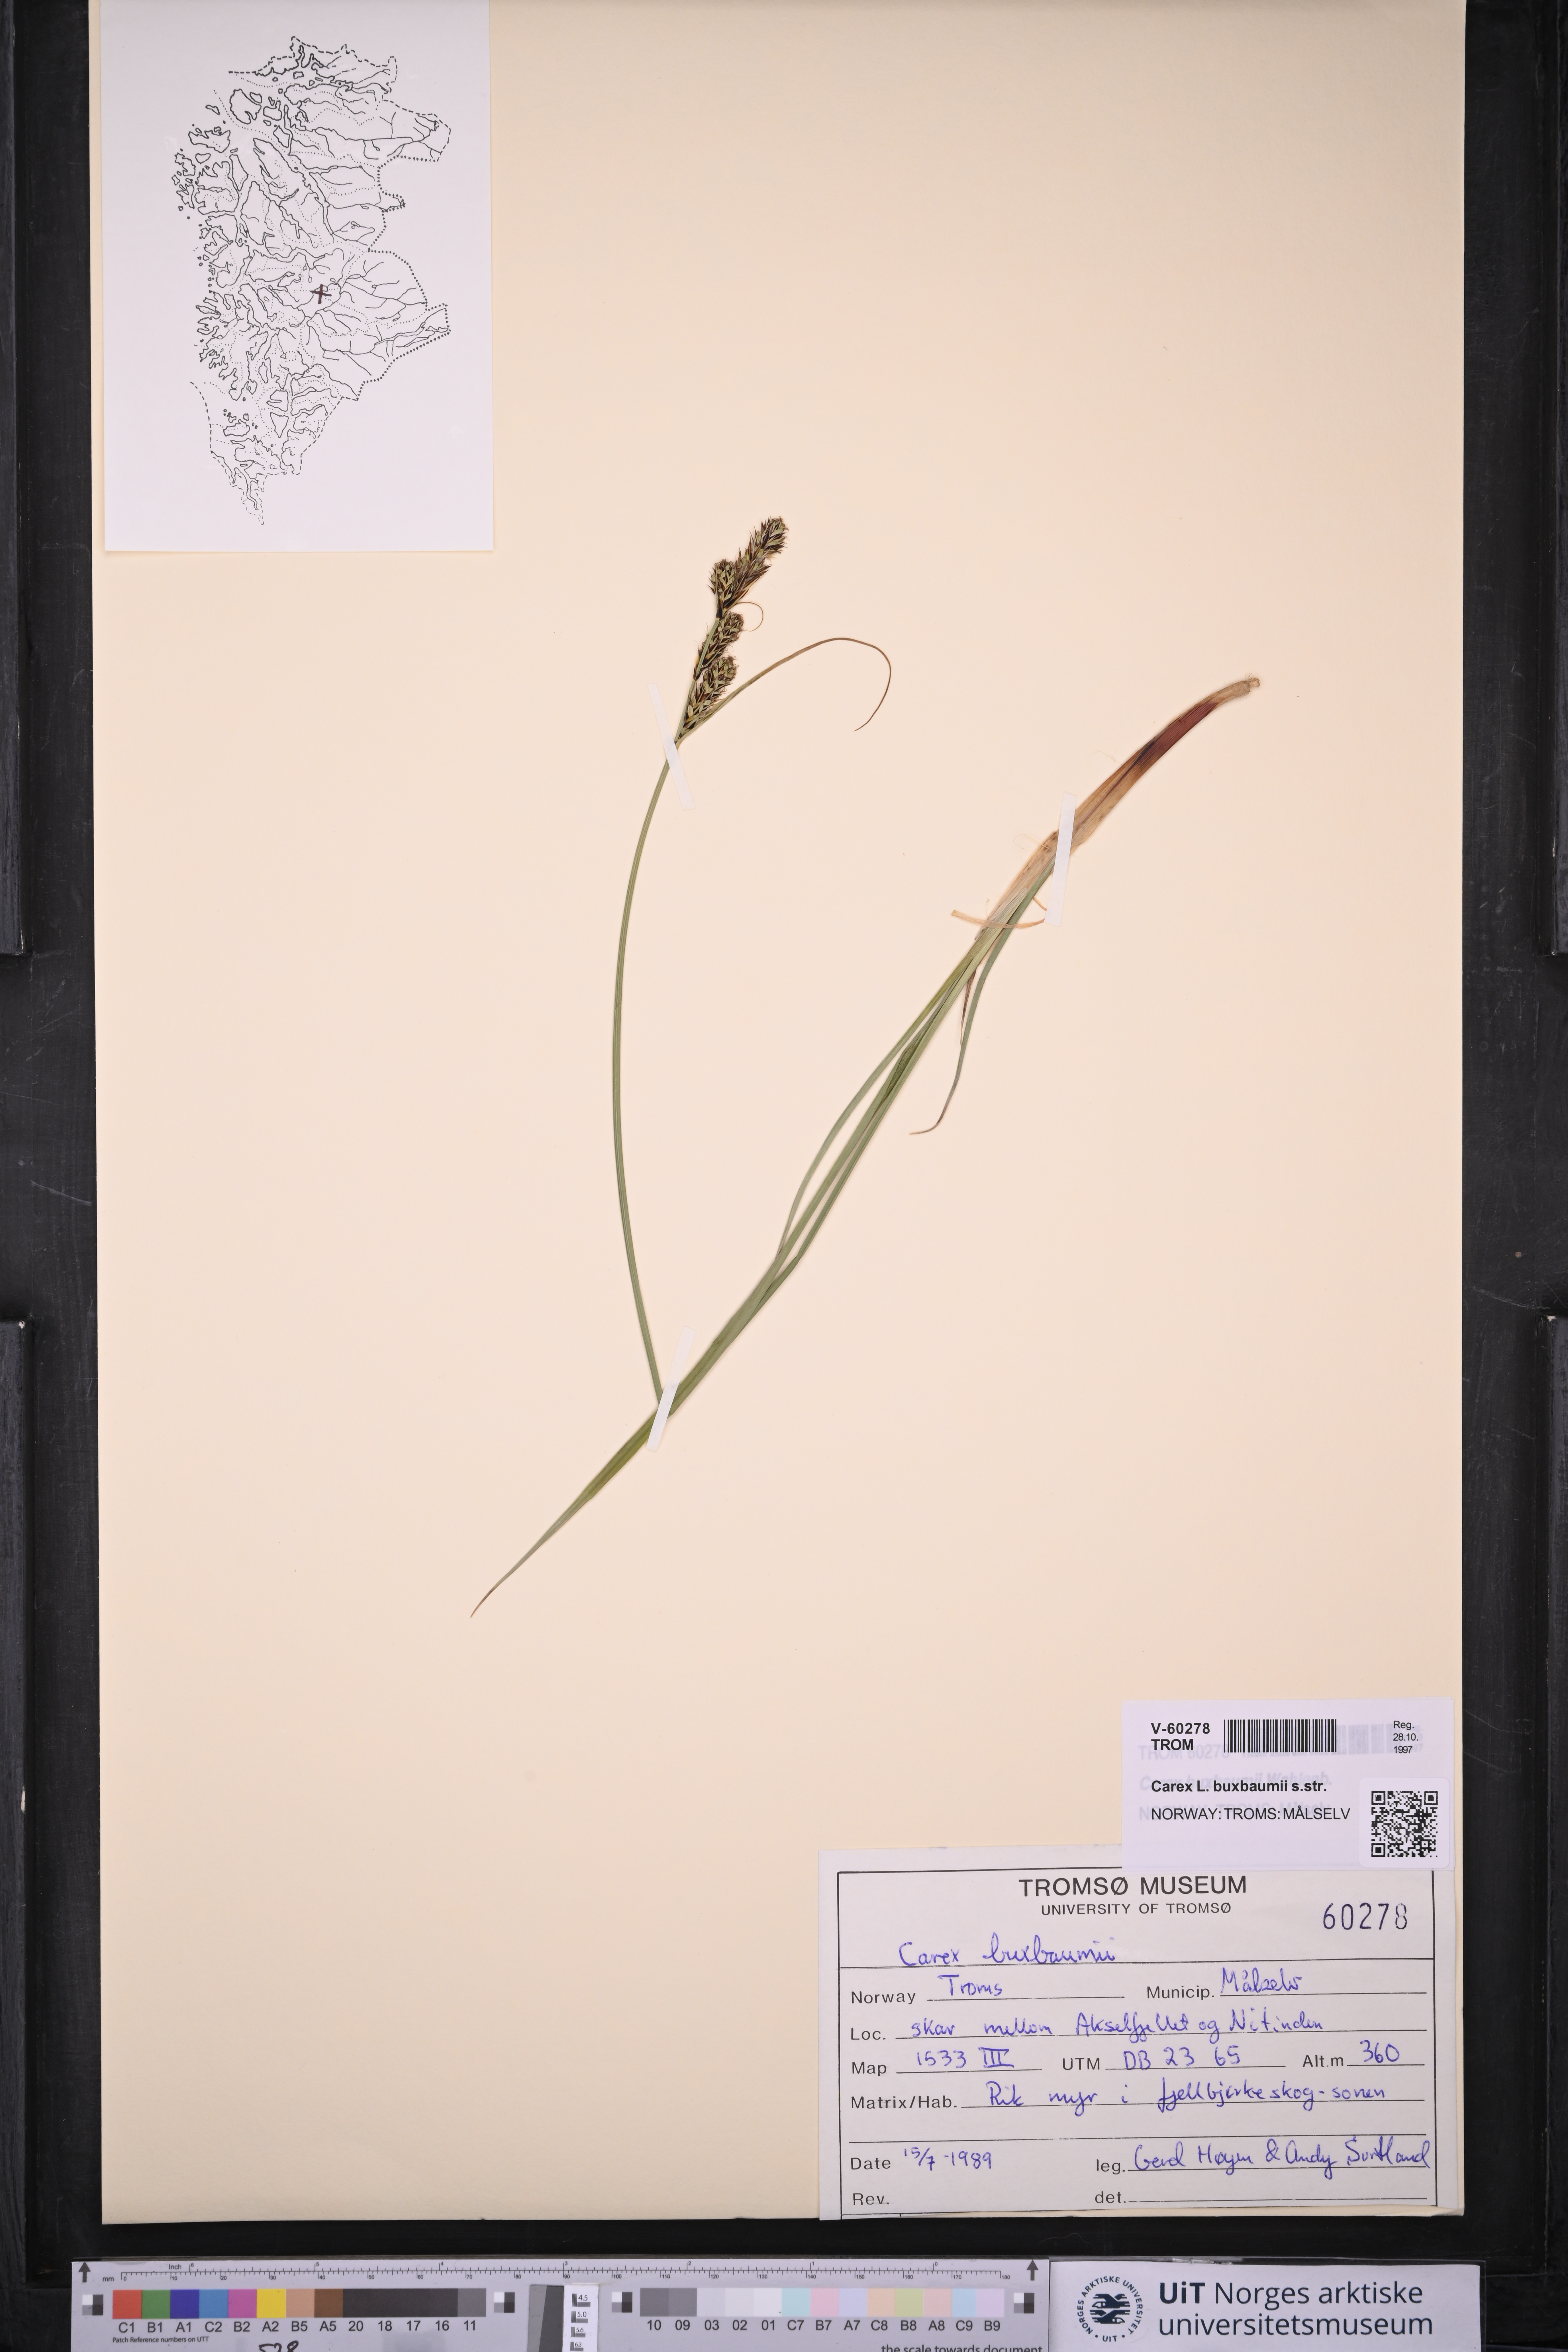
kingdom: Plantae
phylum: Tracheophyta
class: Liliopsida
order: Poales
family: Cyperaceae
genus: Carex
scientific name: Carex buxbaumii
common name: Club sedge
